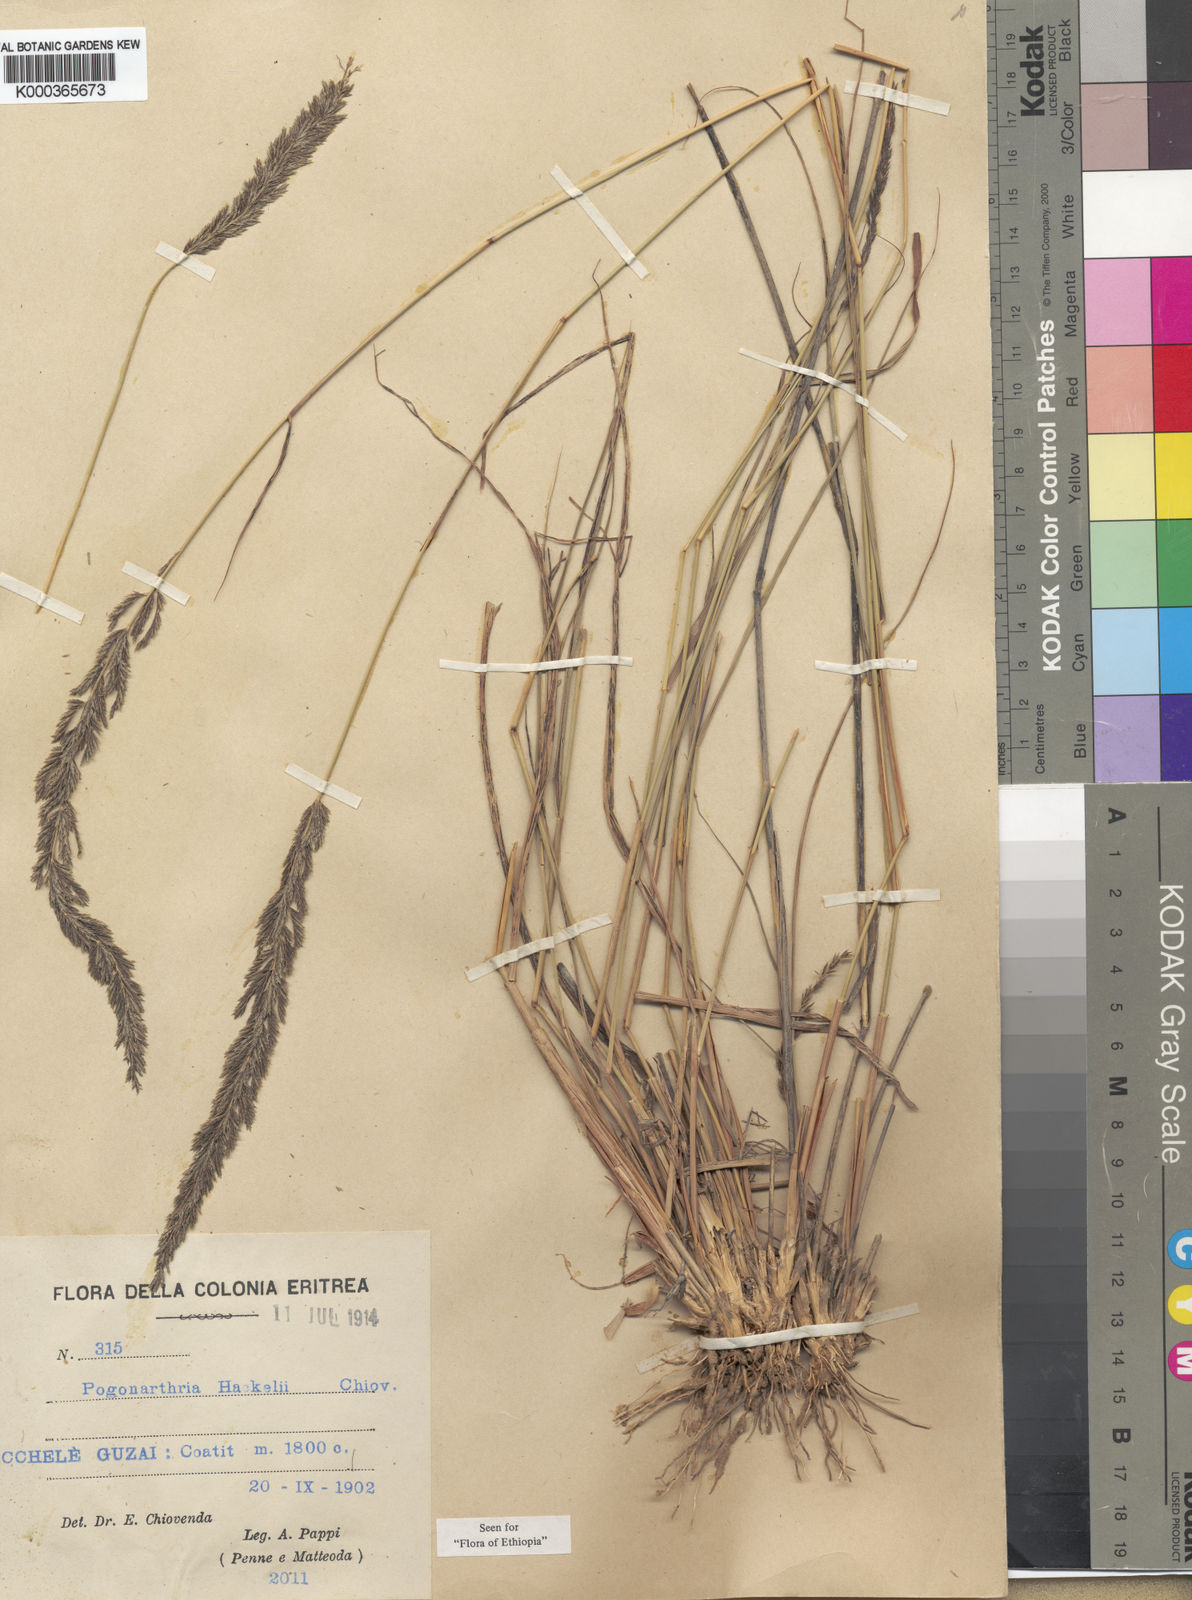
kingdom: Plantae
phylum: Tracheophyta
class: Liliopsida
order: Poales
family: Poaceae
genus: Pogonarthria
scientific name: Pogonarthria squarrosa
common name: Grass
